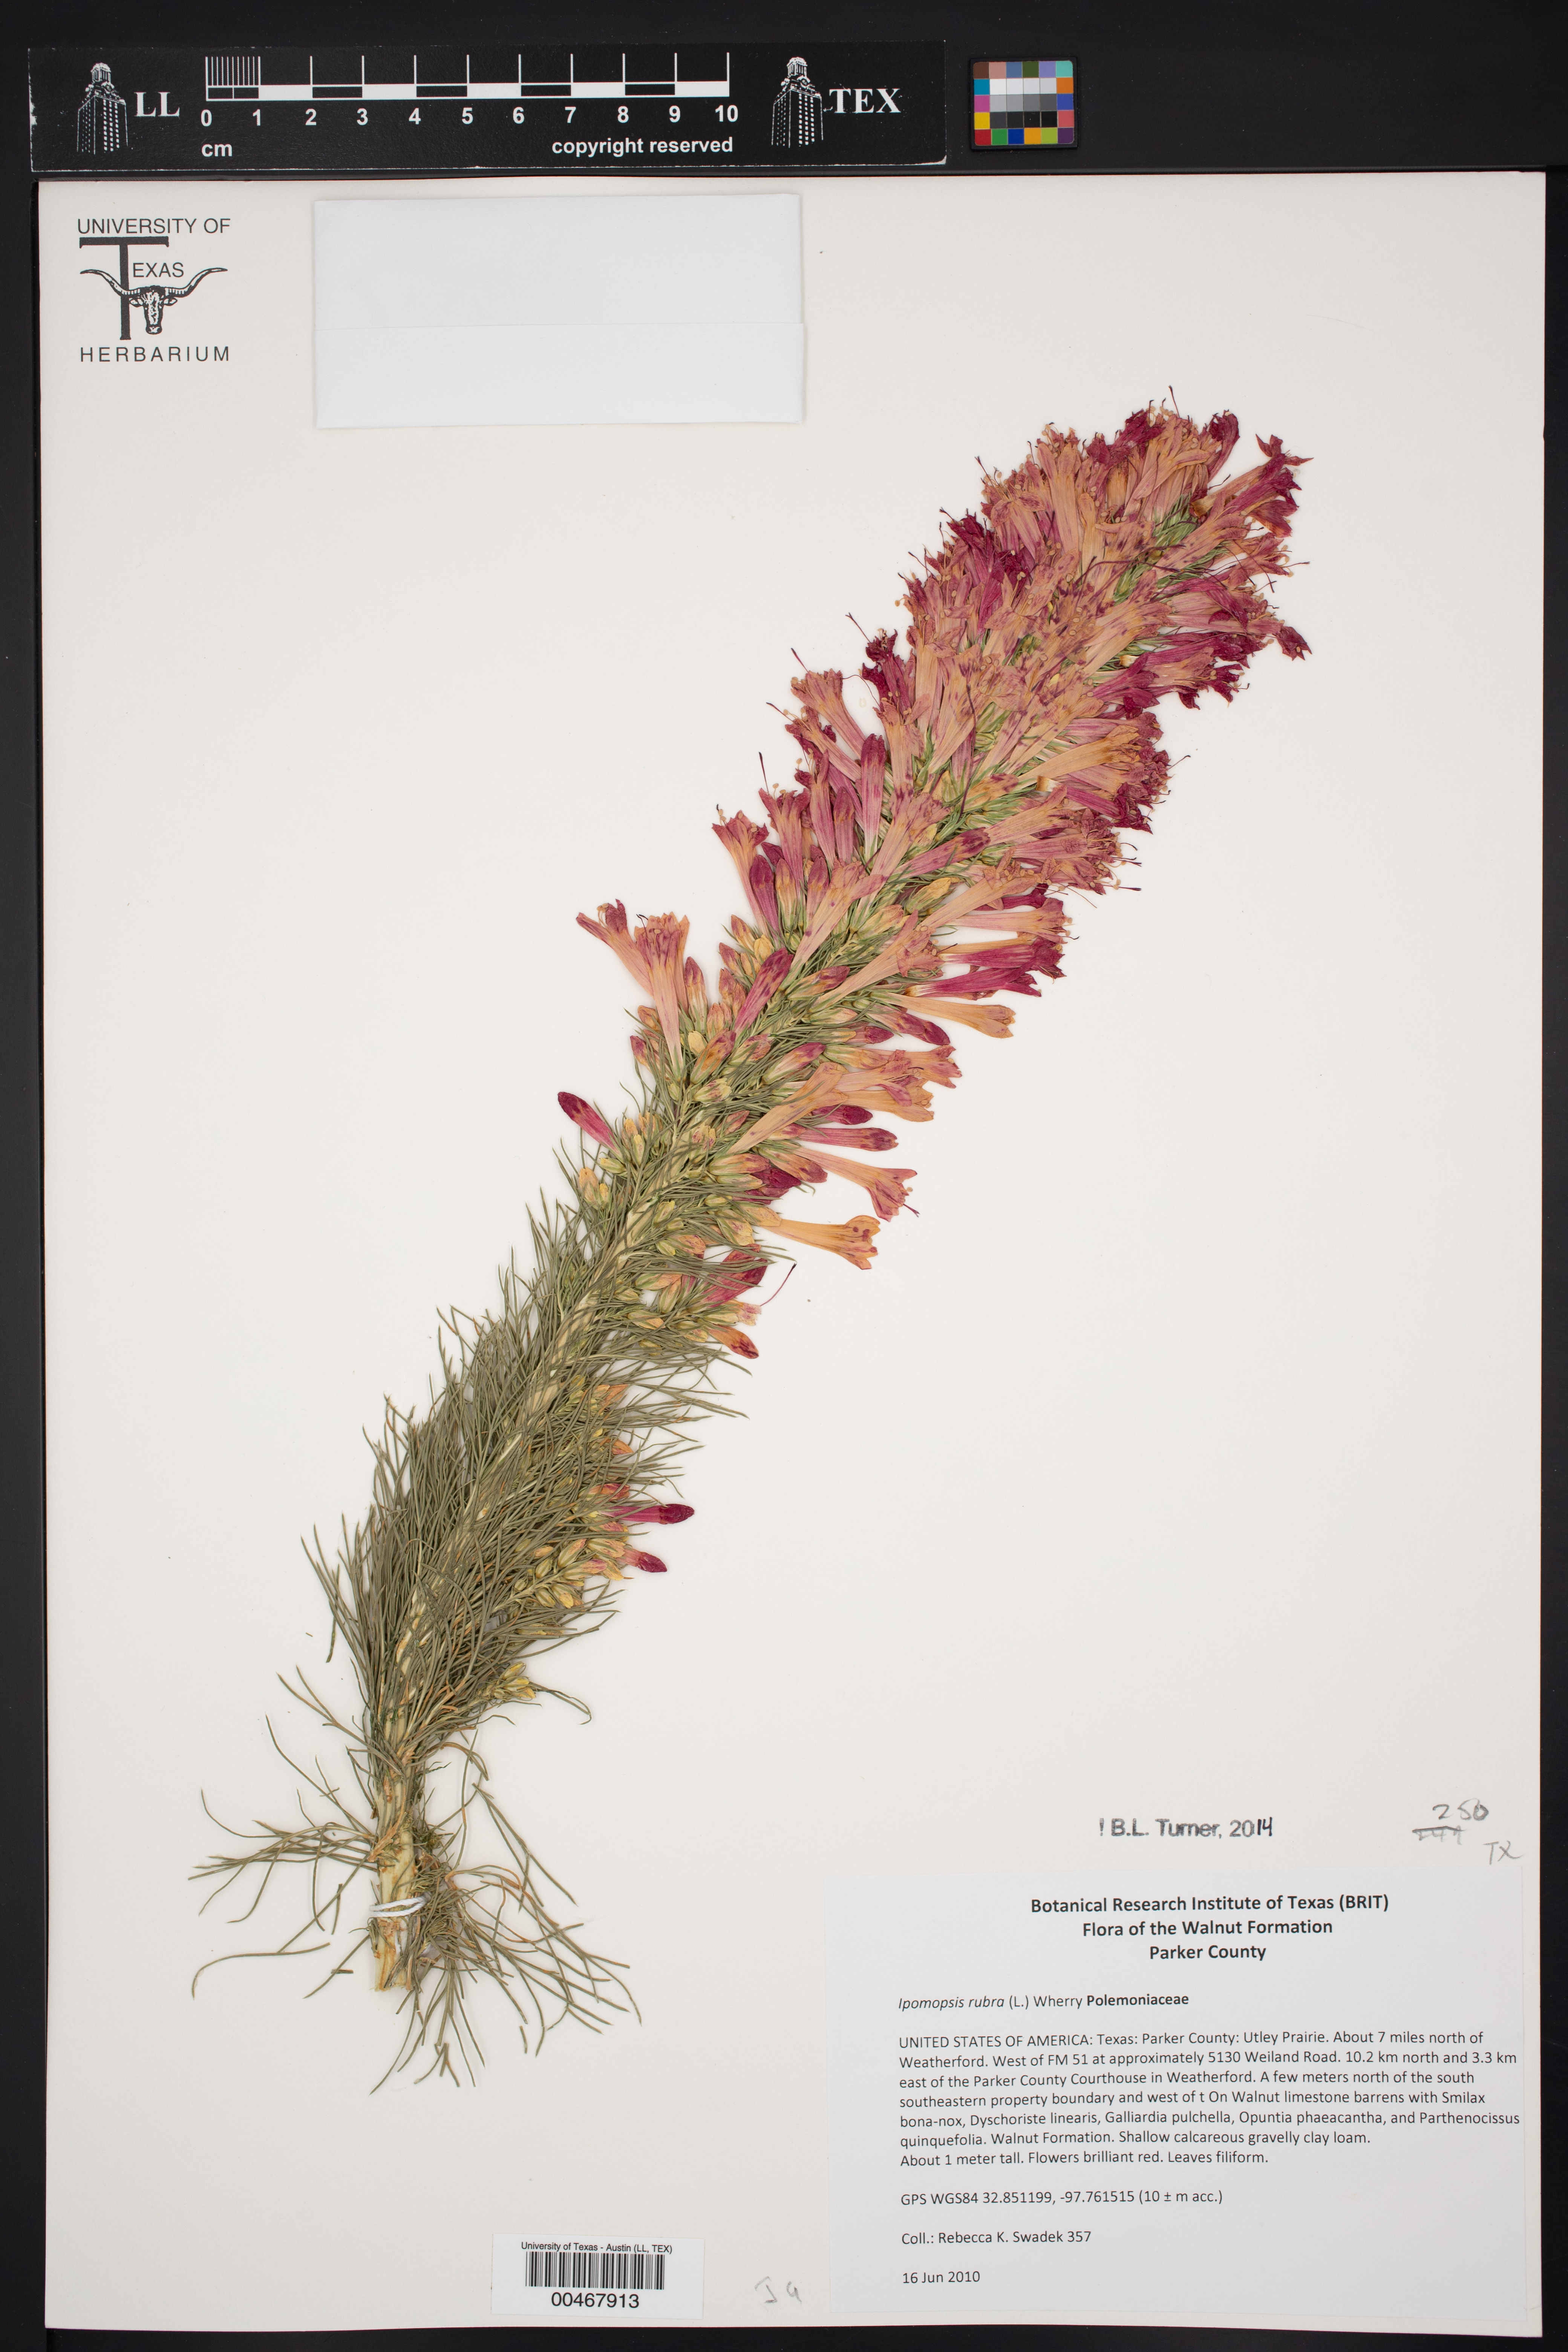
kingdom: Plantae
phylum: Tracheophyta
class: Magnoliopsida
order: Ericales
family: Polemoniaceae
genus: Ipomopsis
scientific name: Ipomopsis rubra
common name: Skyrocket
